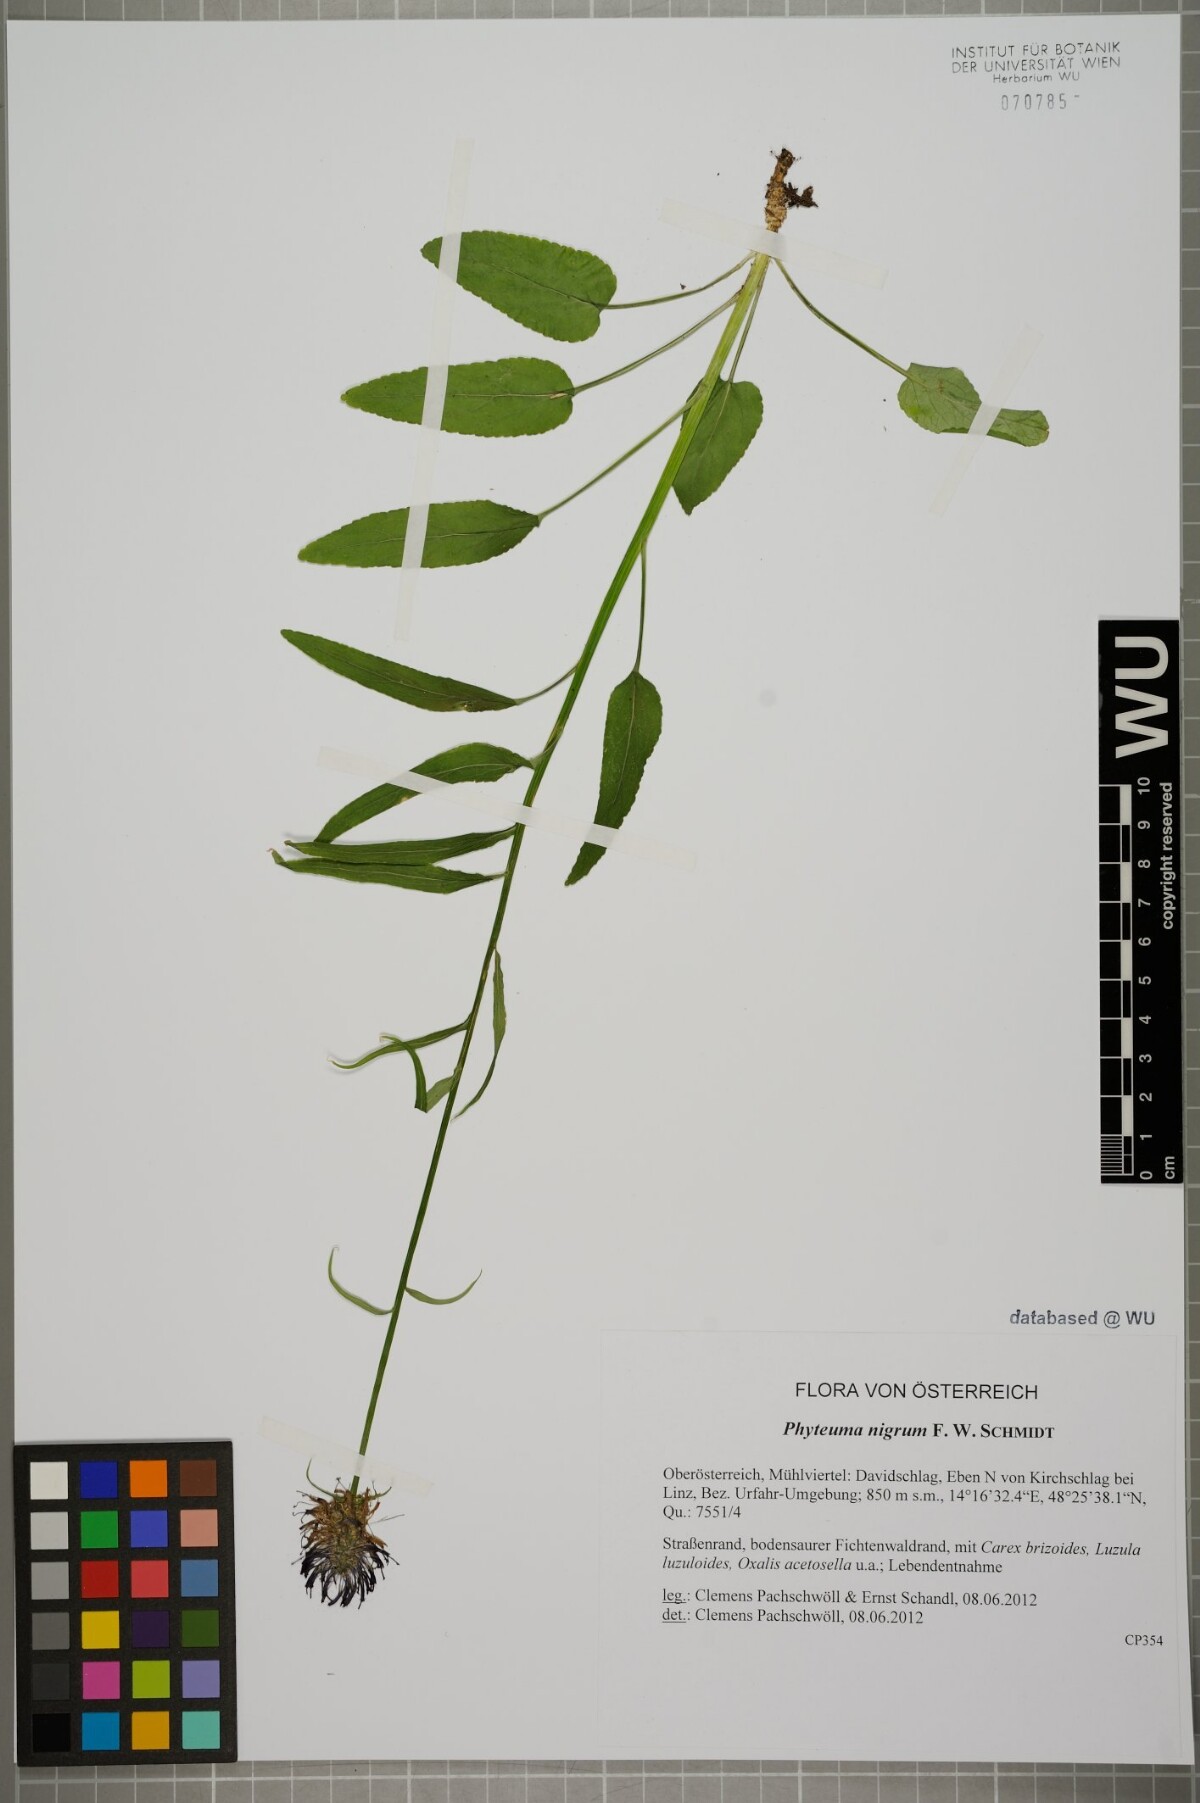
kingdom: Plantae
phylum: Tracheophyta
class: Magnoliopsida
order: Asterales
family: Campanulaceae
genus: Phyteuma
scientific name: Phyteuma nigrum
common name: Black rampion
